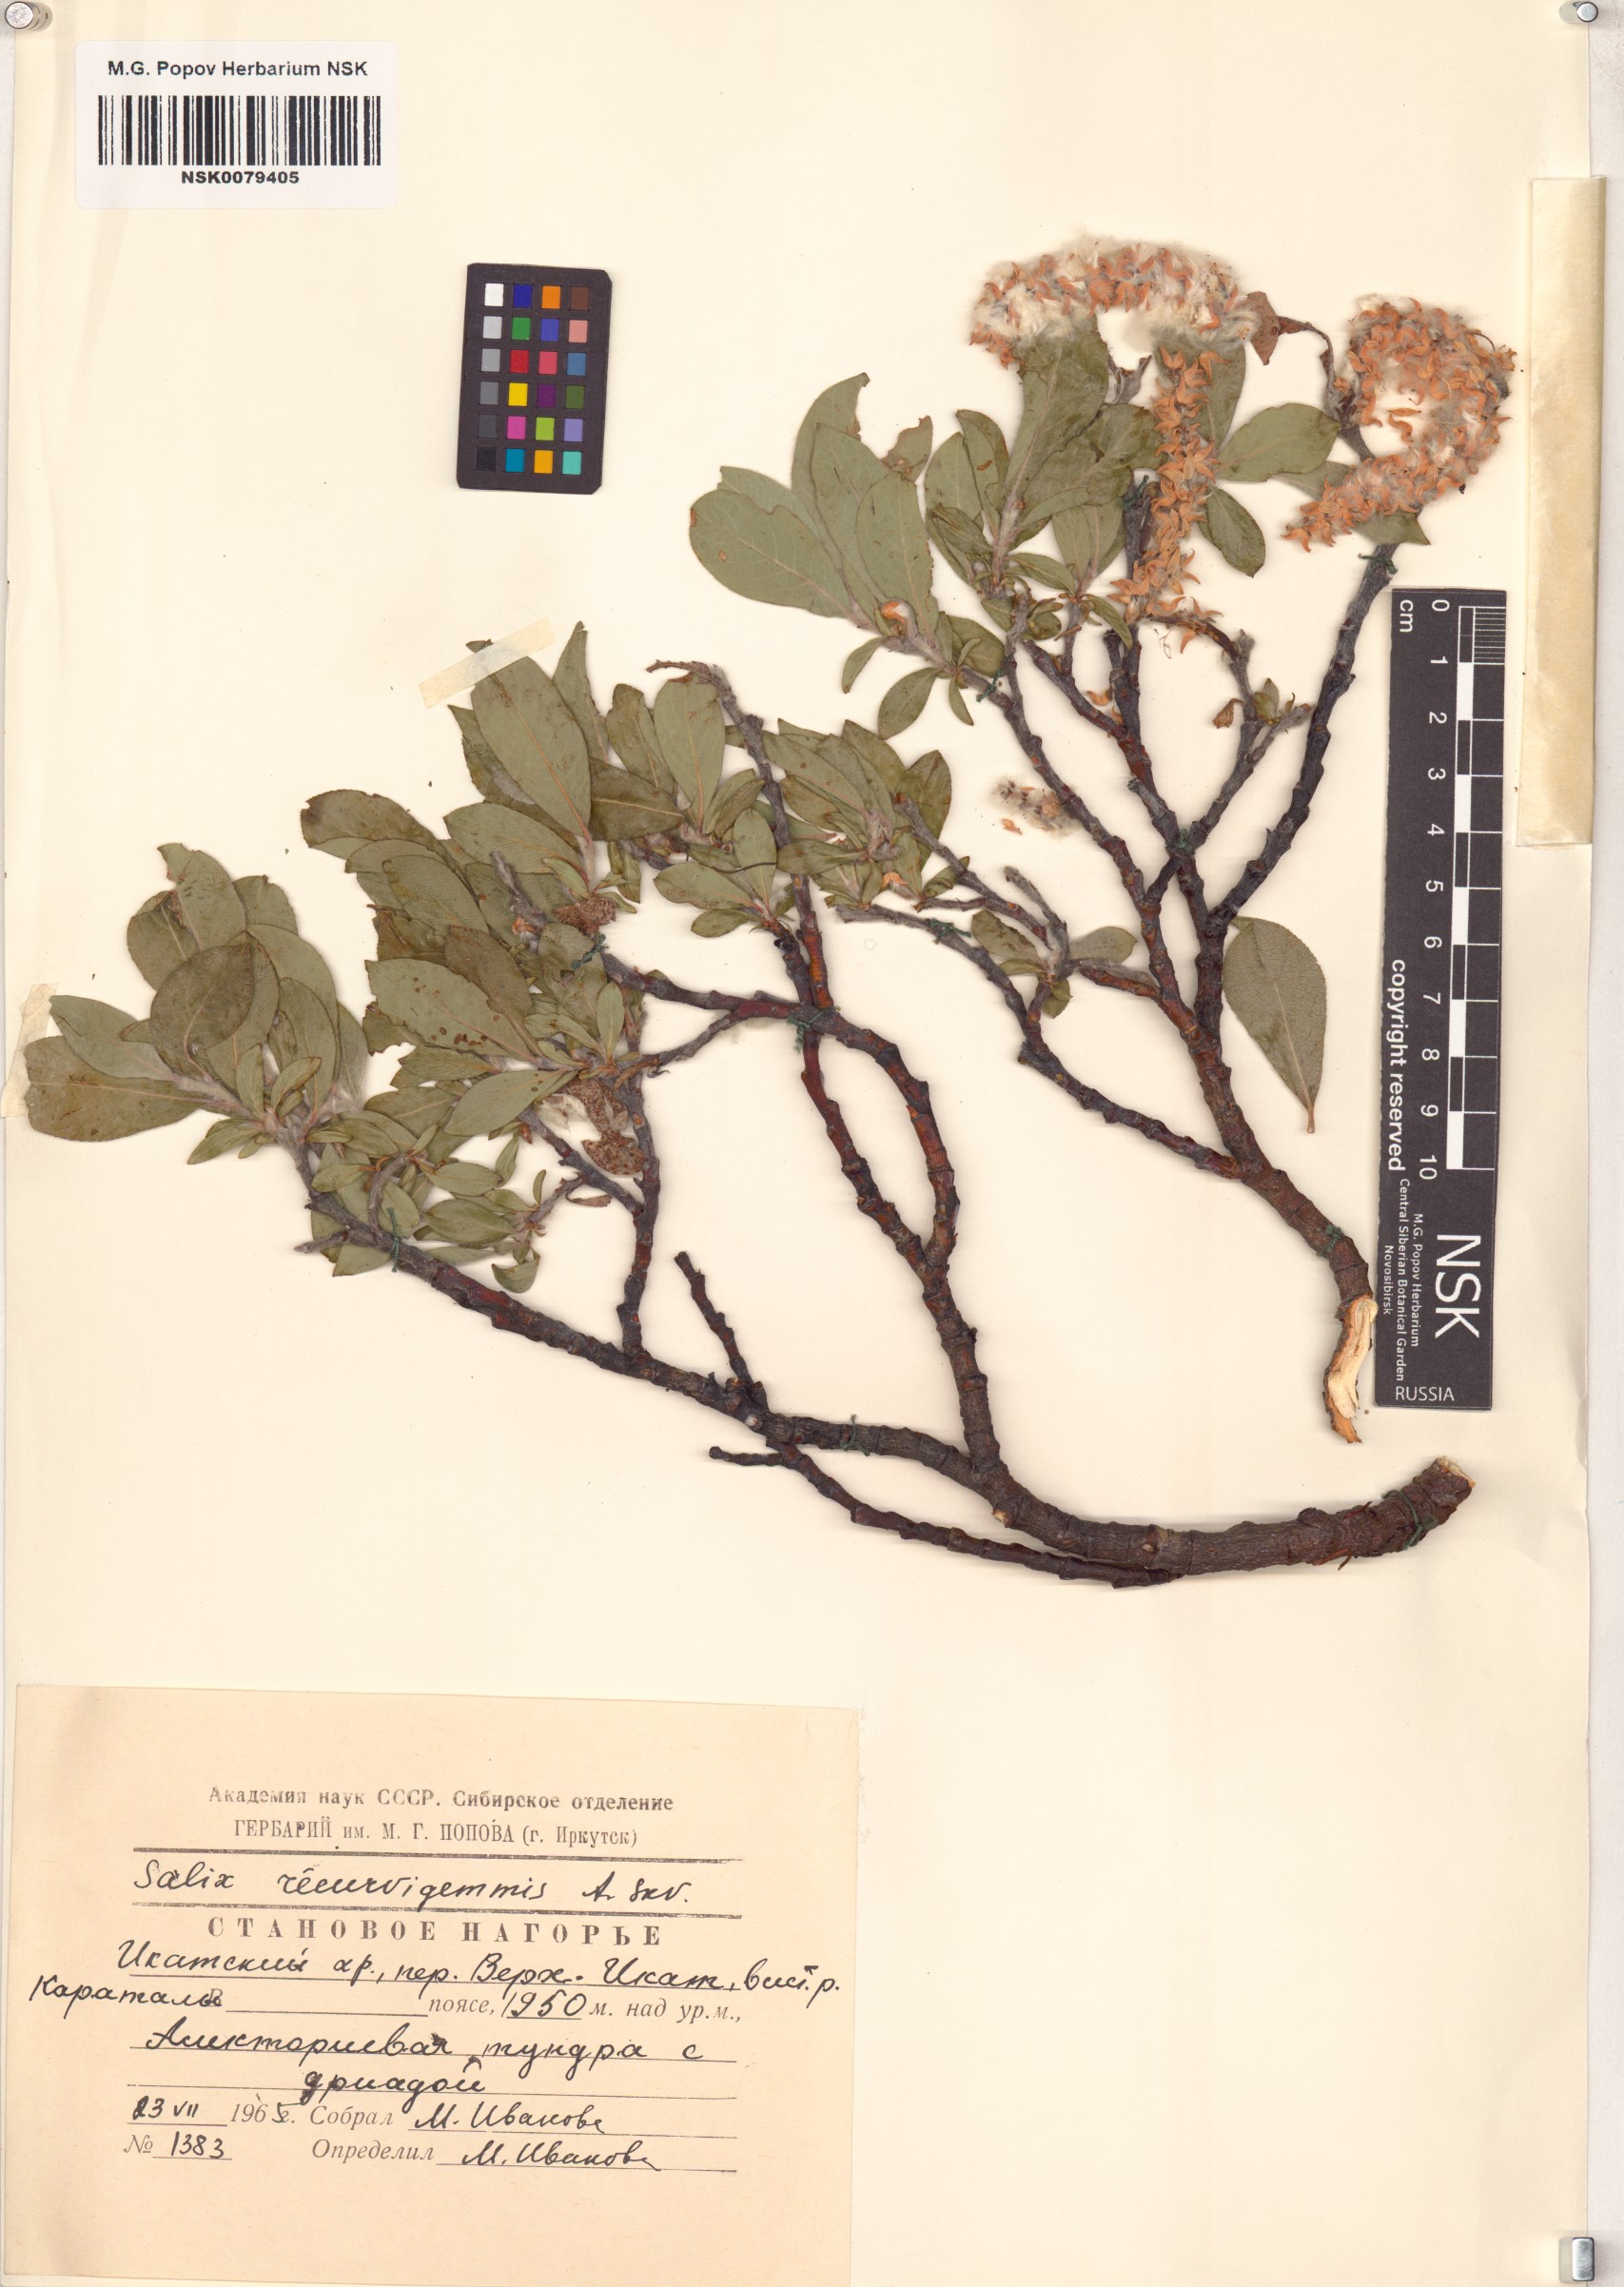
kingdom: Plantae
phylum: Tracheophyta
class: Magnoliopsida
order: Malpighiales
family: Salicaceae
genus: Salix
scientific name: Salix recurvigemmata
